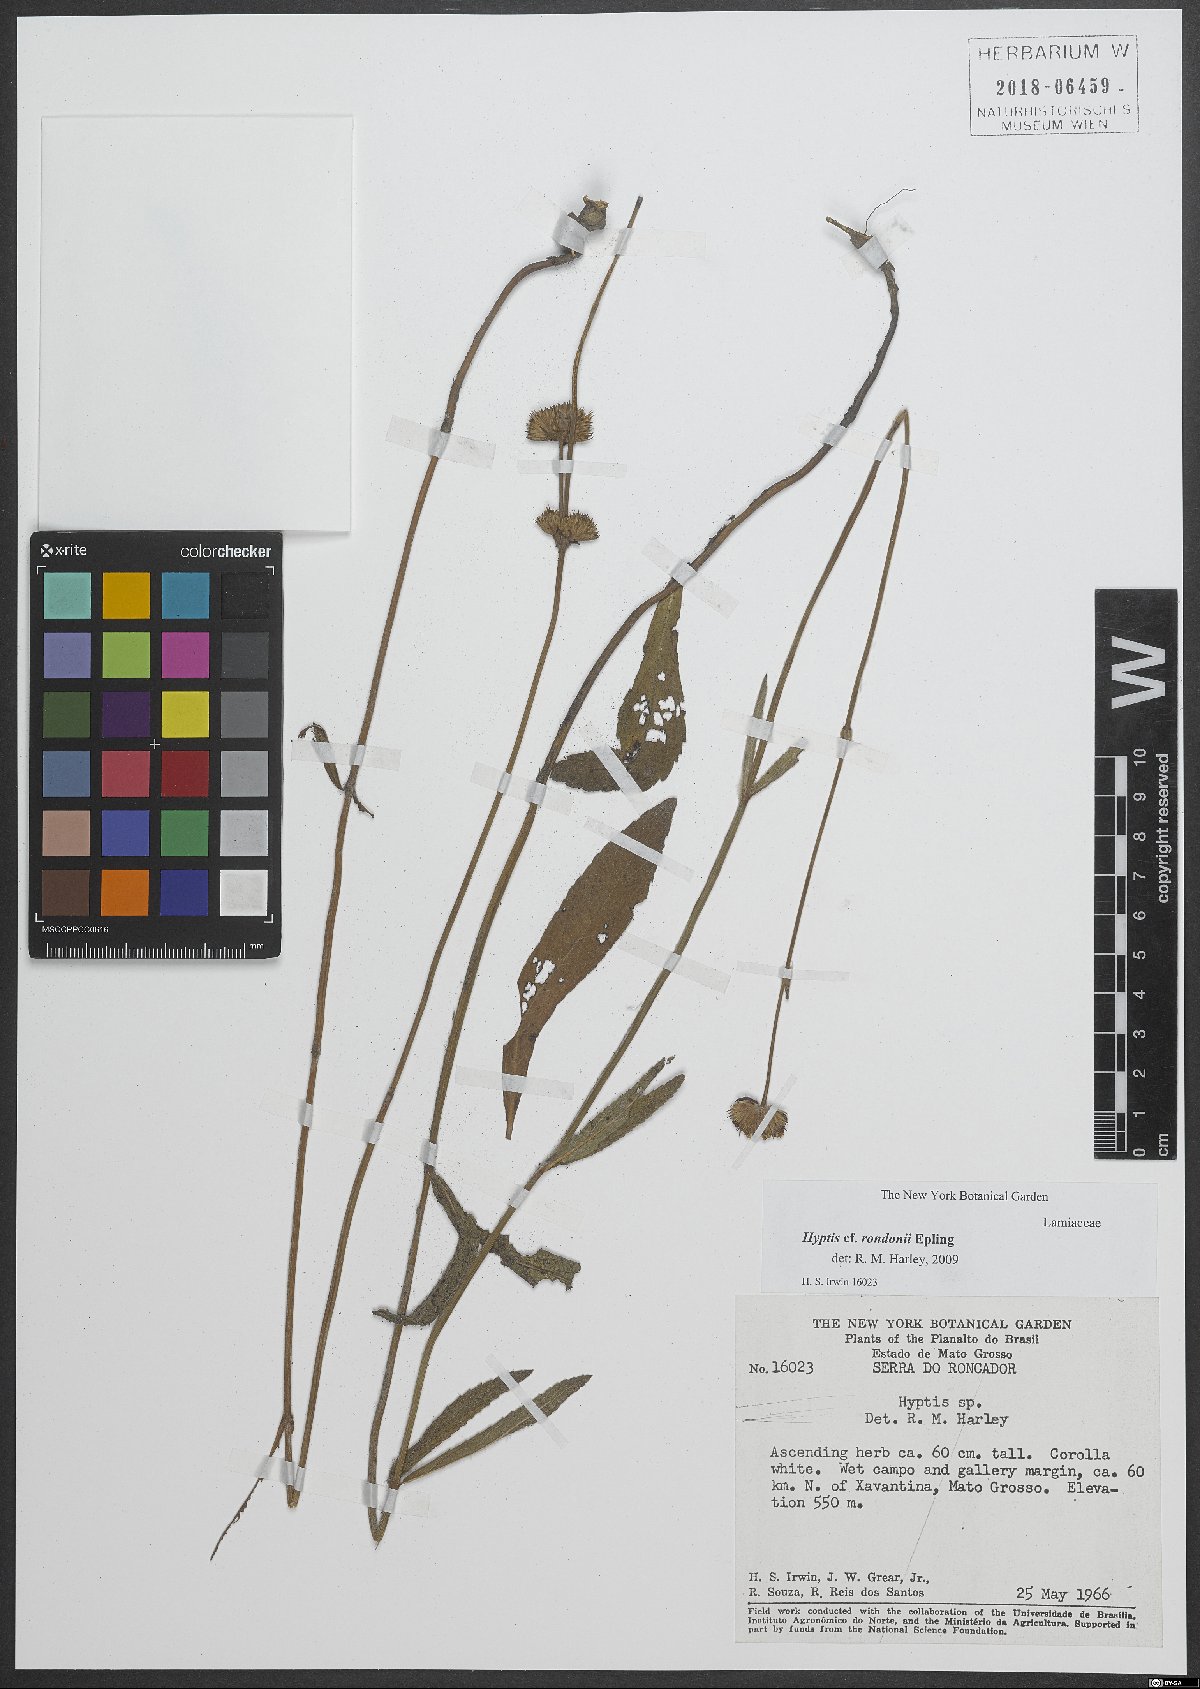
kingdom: Plantae
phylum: Tracheophyta
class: Magnoliopsida
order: Lamiales
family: Lamiaceae
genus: Hyptis
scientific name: Hyptis rondonii
